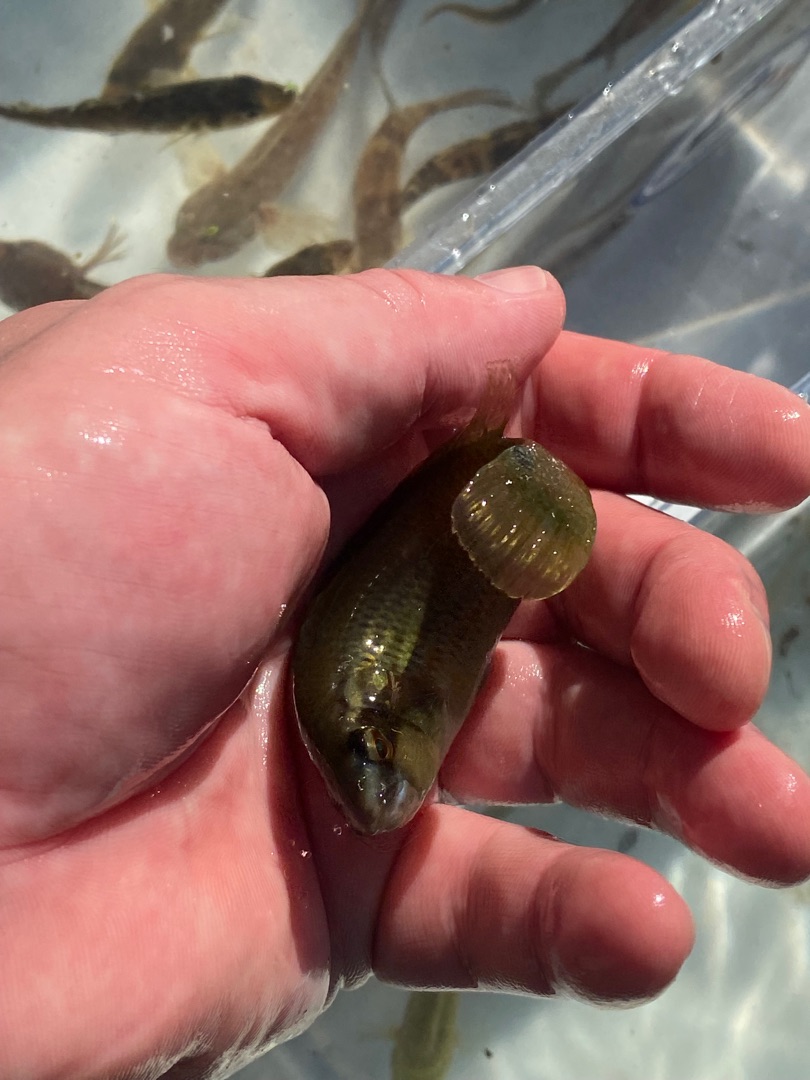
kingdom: Animalia
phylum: Chordata
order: Perciformes
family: Labridae
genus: Ctenolabrus
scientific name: Ctenolabrus rupestris
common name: Havkarusse
